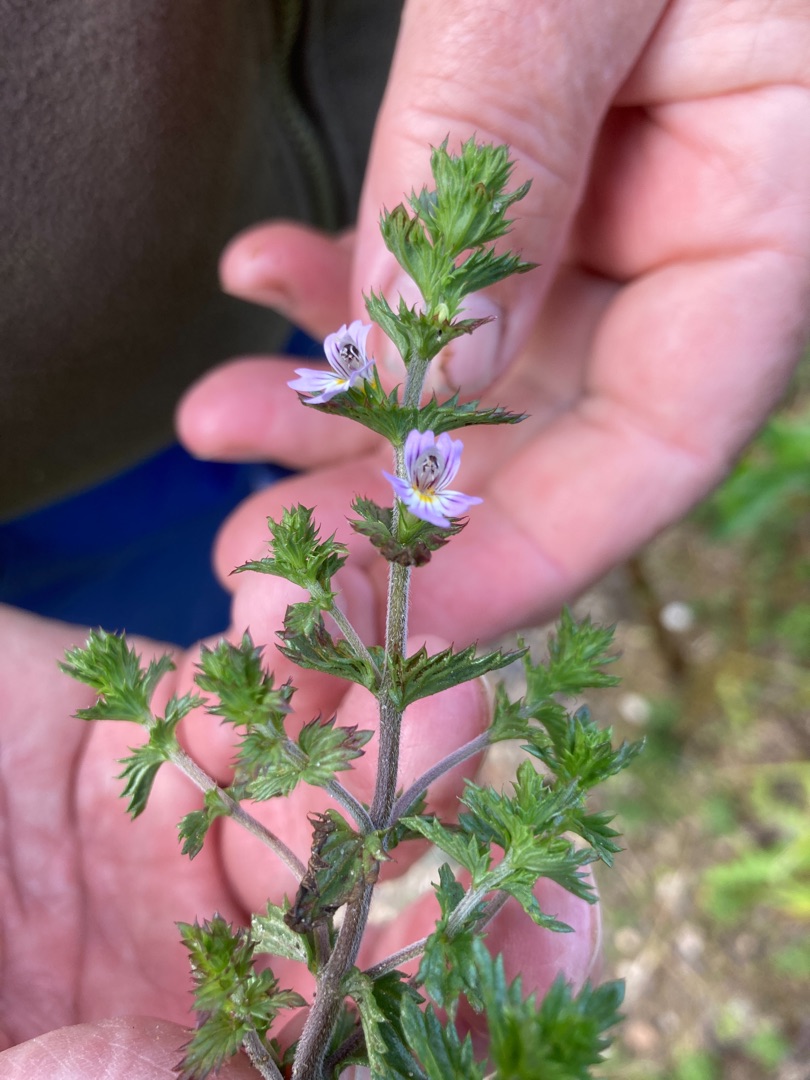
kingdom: Plantae
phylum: Tracheophyta
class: Magnoliopsida
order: Lamiales
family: Orobanchaceae
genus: Euphrasia
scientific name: Euphrasia stricta
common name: Spids øjentrøst
